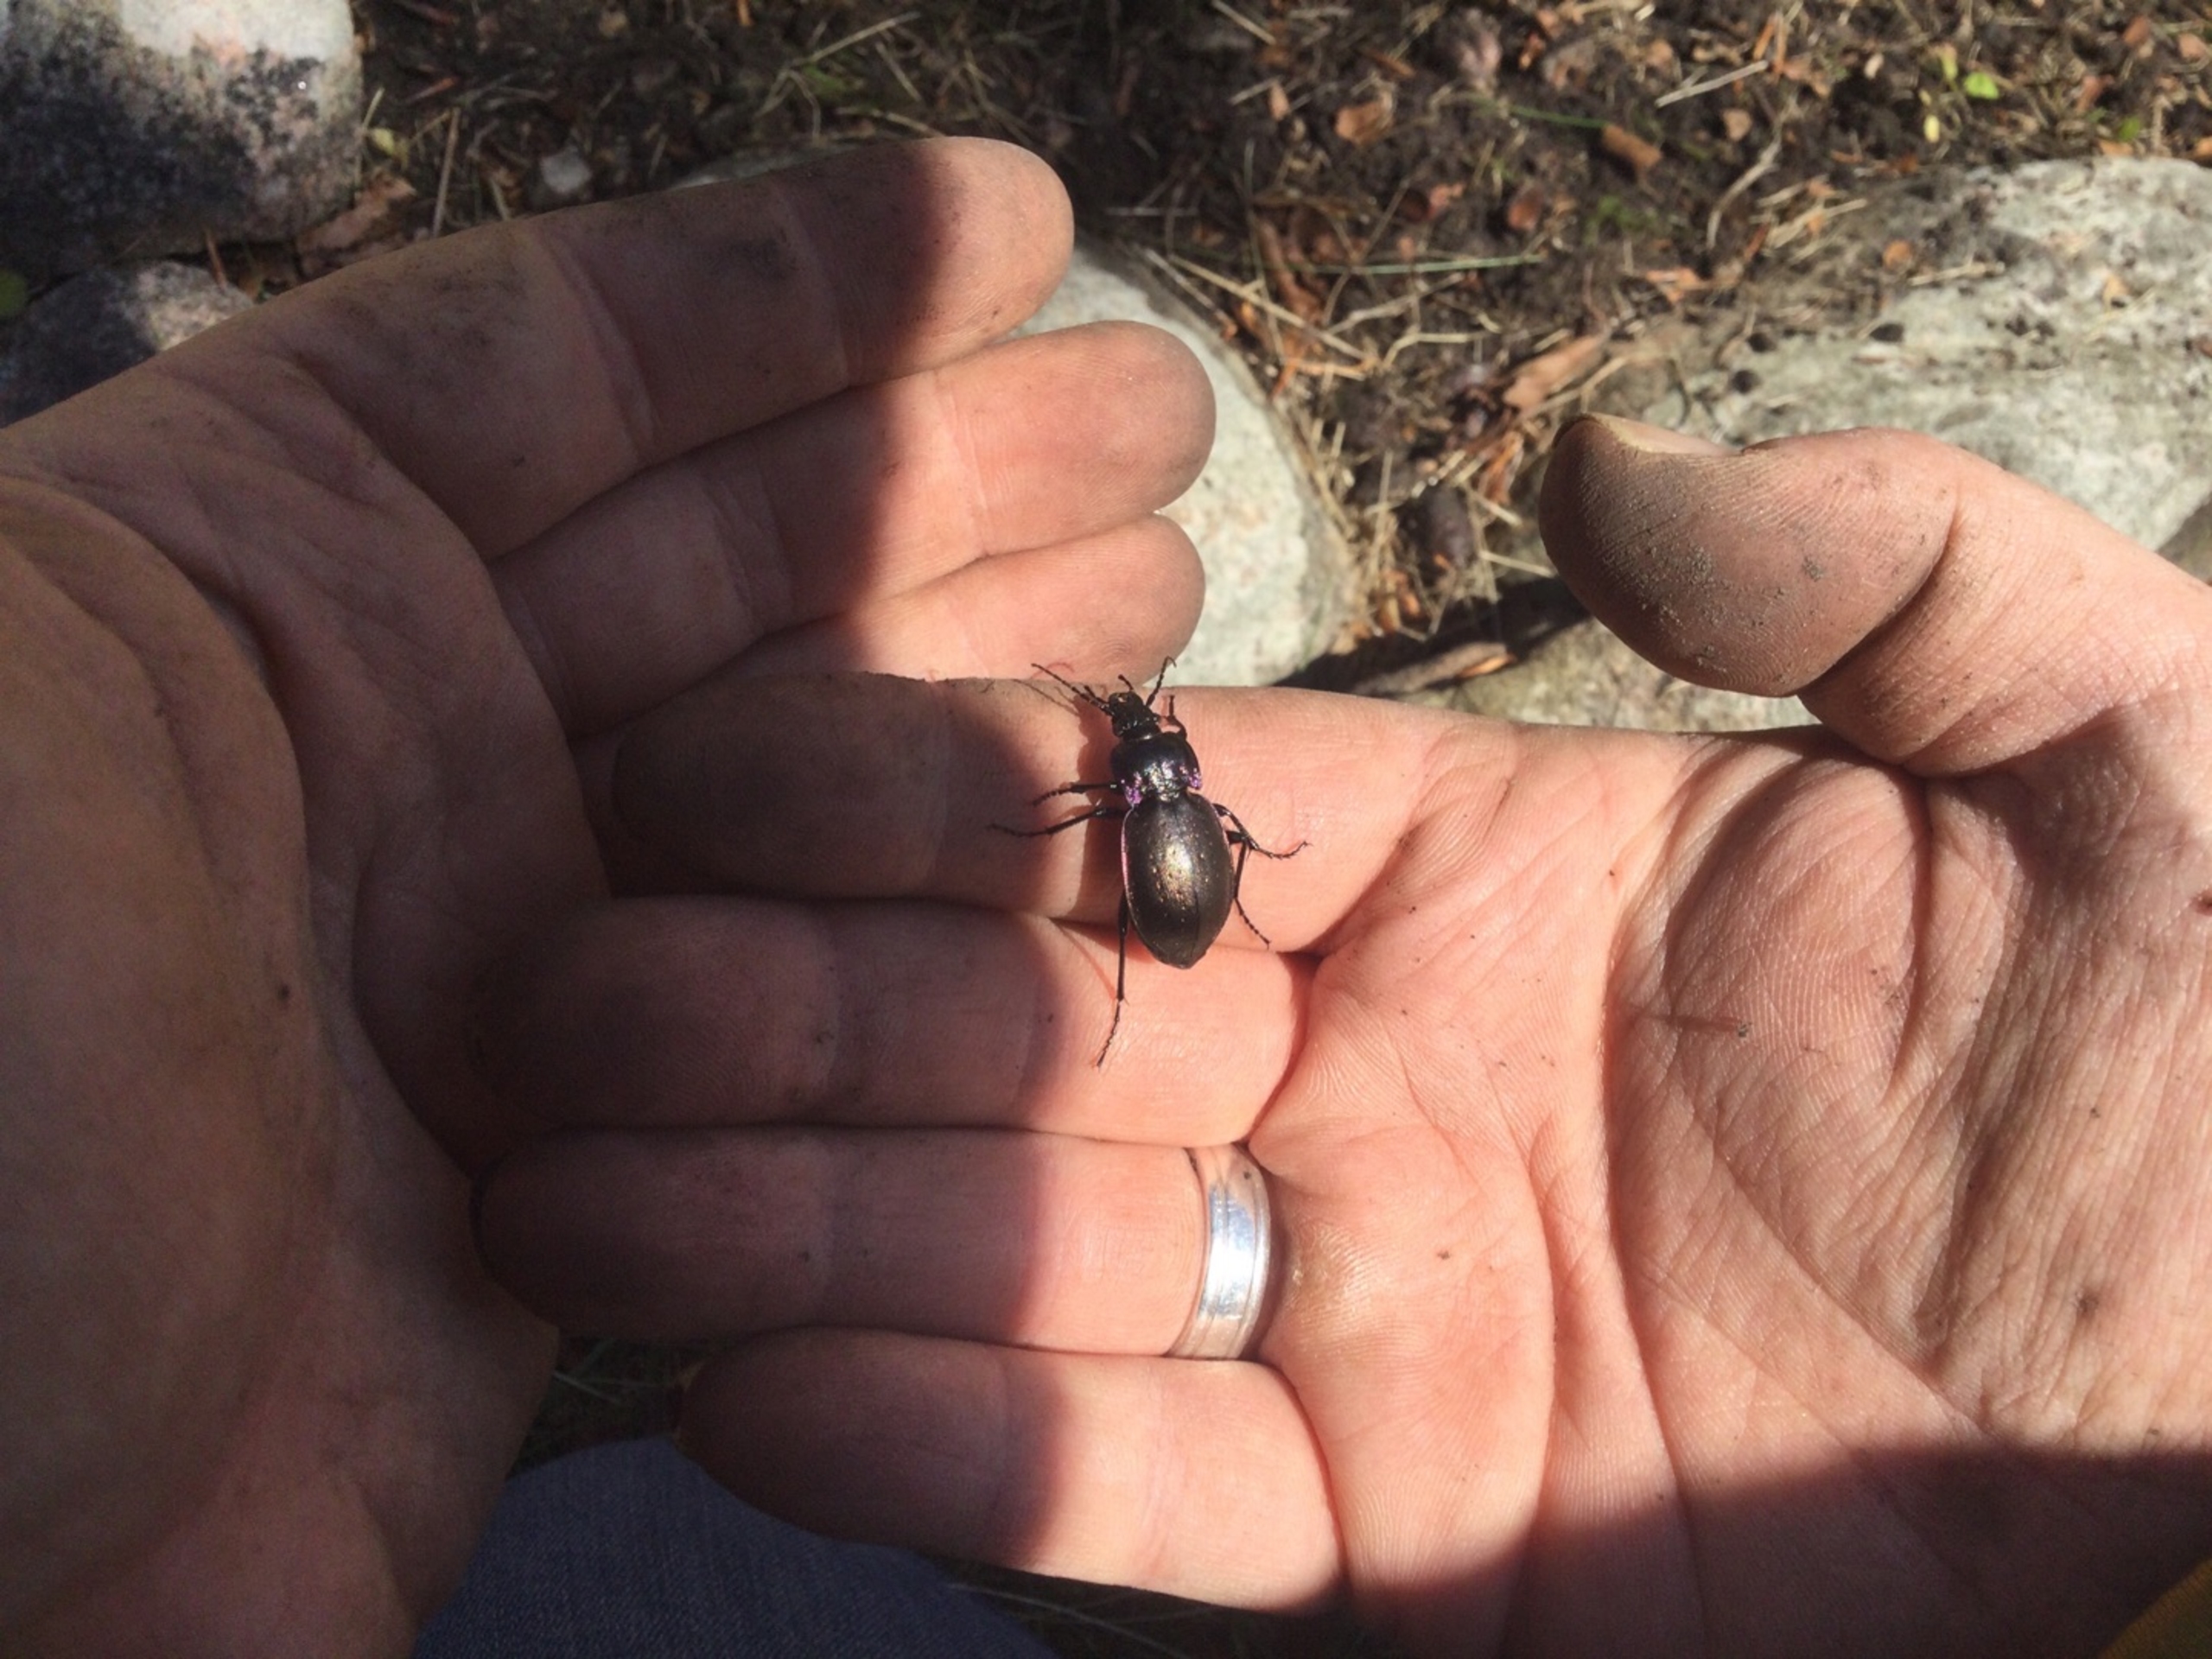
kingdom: Animalia
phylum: Arthropoda
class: Insecta
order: Coleoptera
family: Carabidae
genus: Carabus
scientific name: Carabus nemoralis
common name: Kratløber
